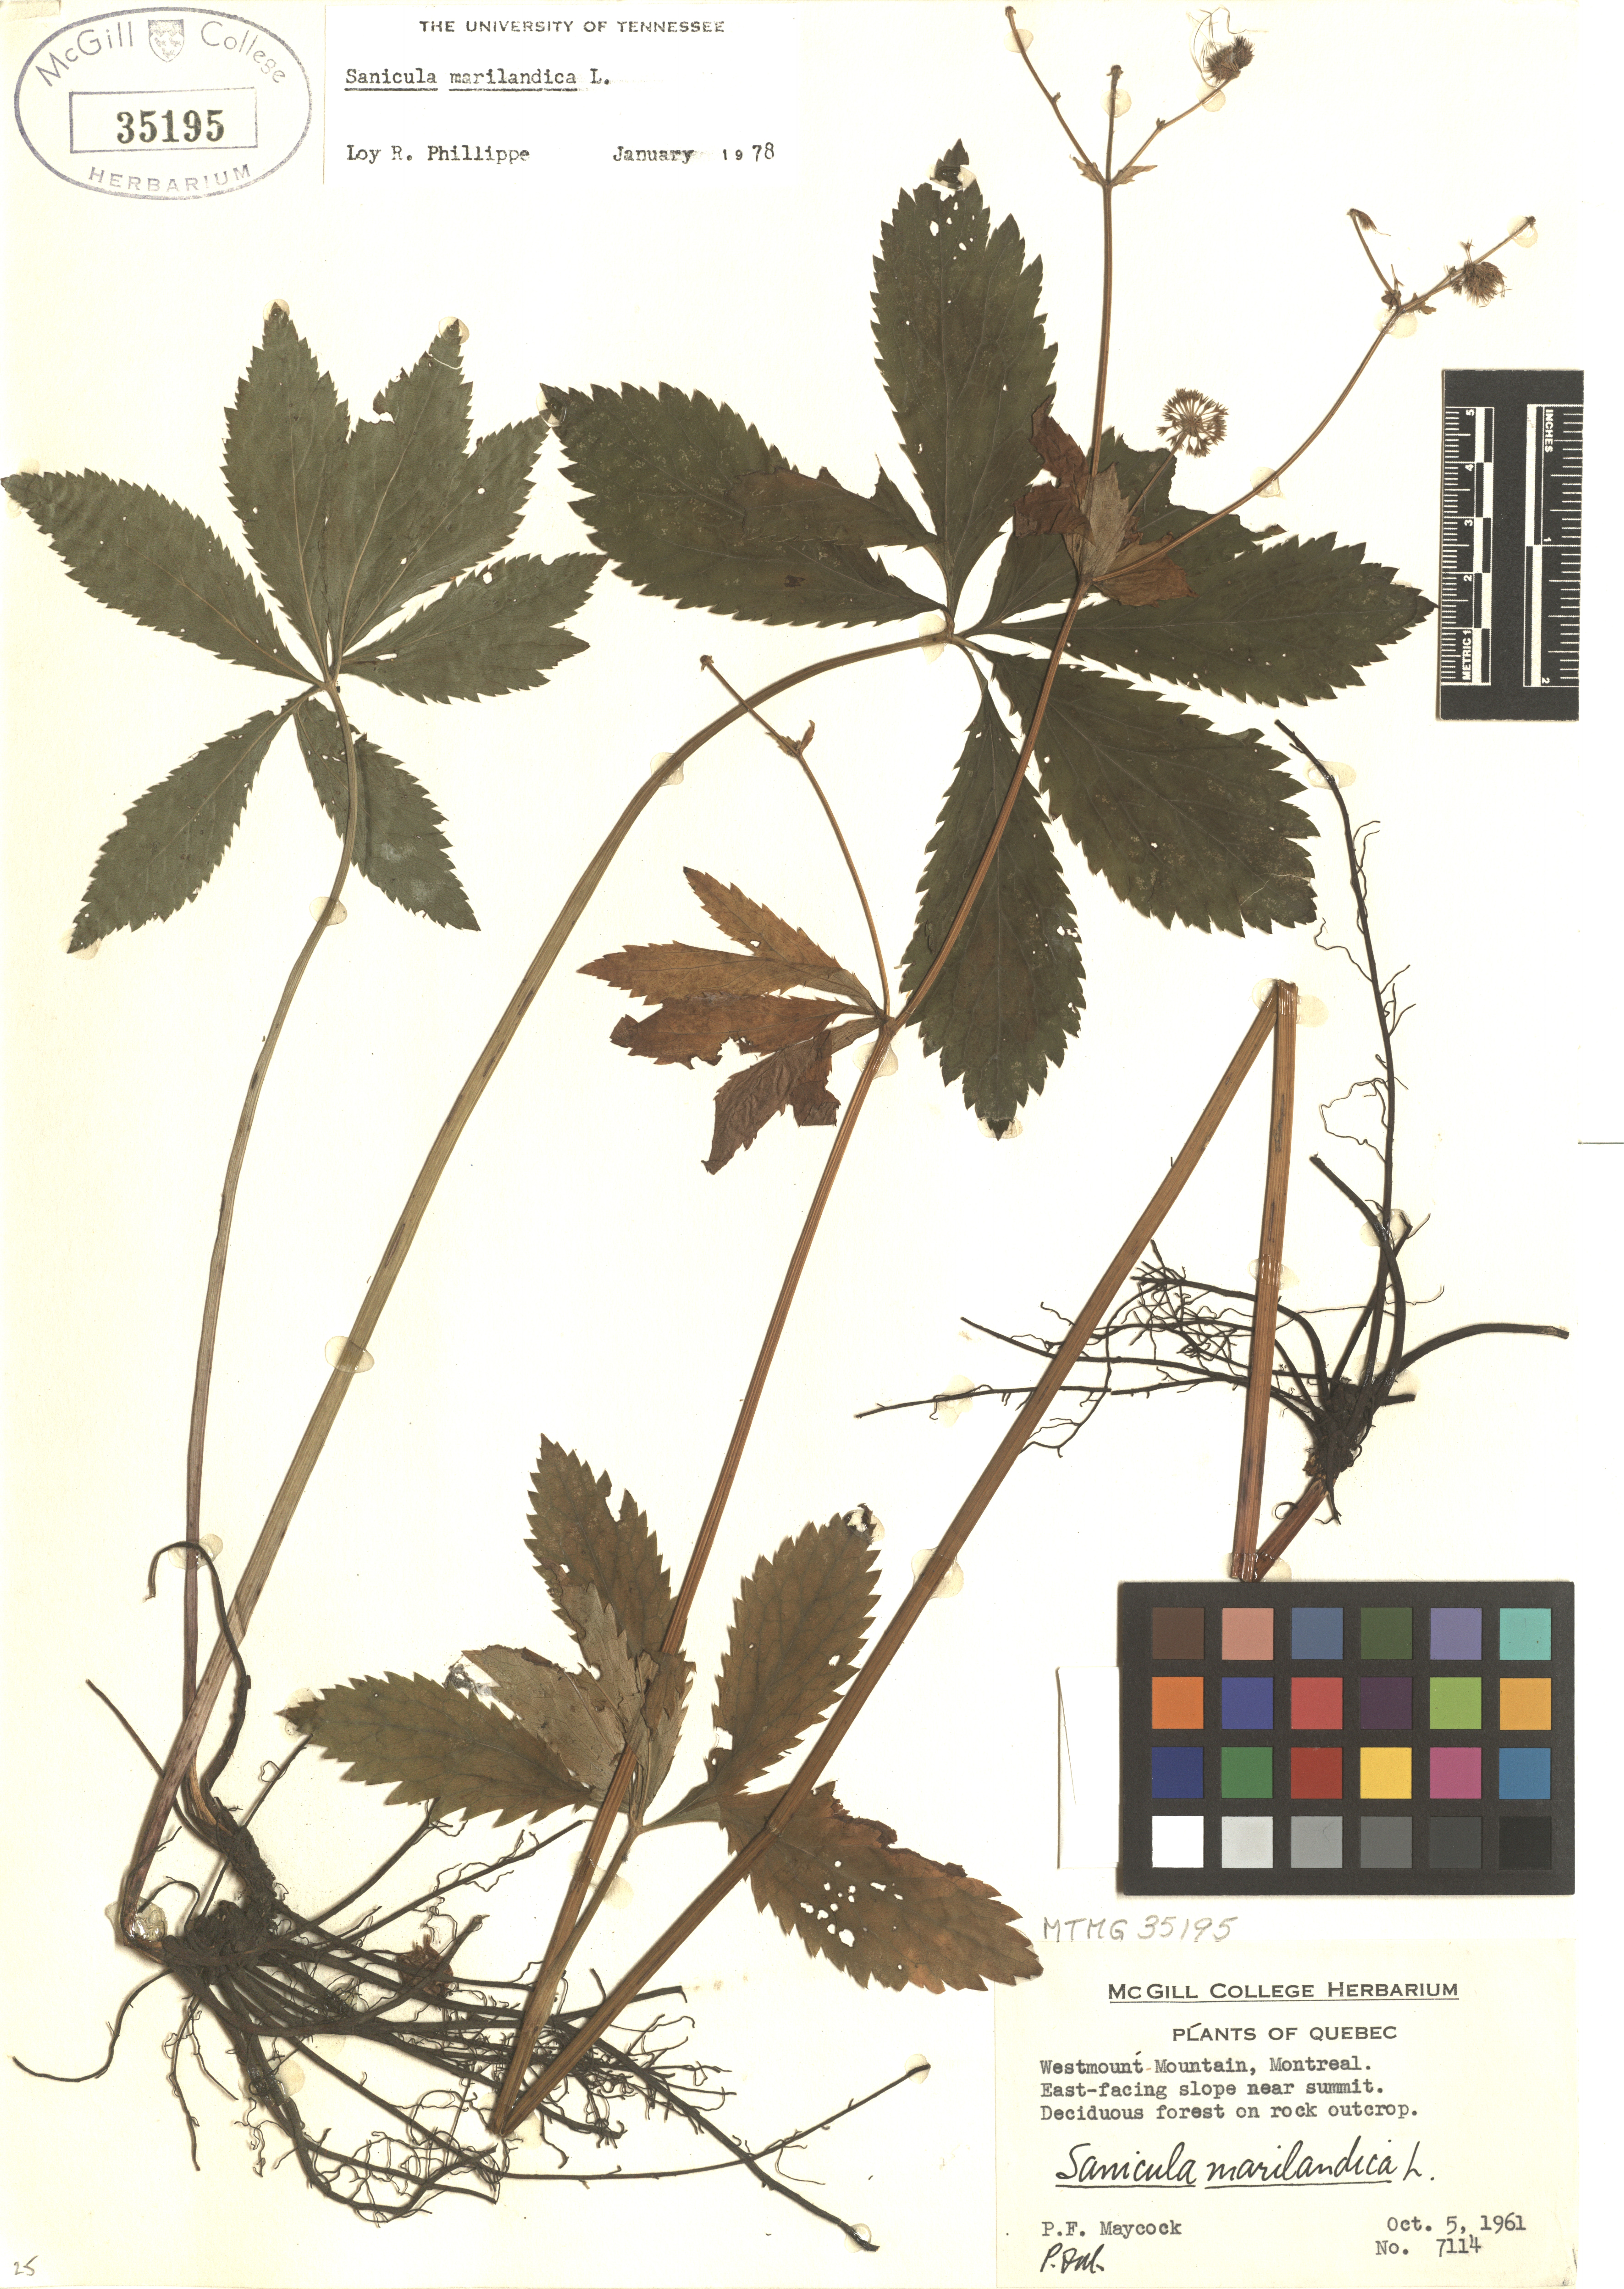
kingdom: Plantae
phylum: Tracheophyta
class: Magnoliopsida
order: Apiales
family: Apiaceae
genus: Sanicula
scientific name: Sanicula marilandica
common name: Black snakeroot
